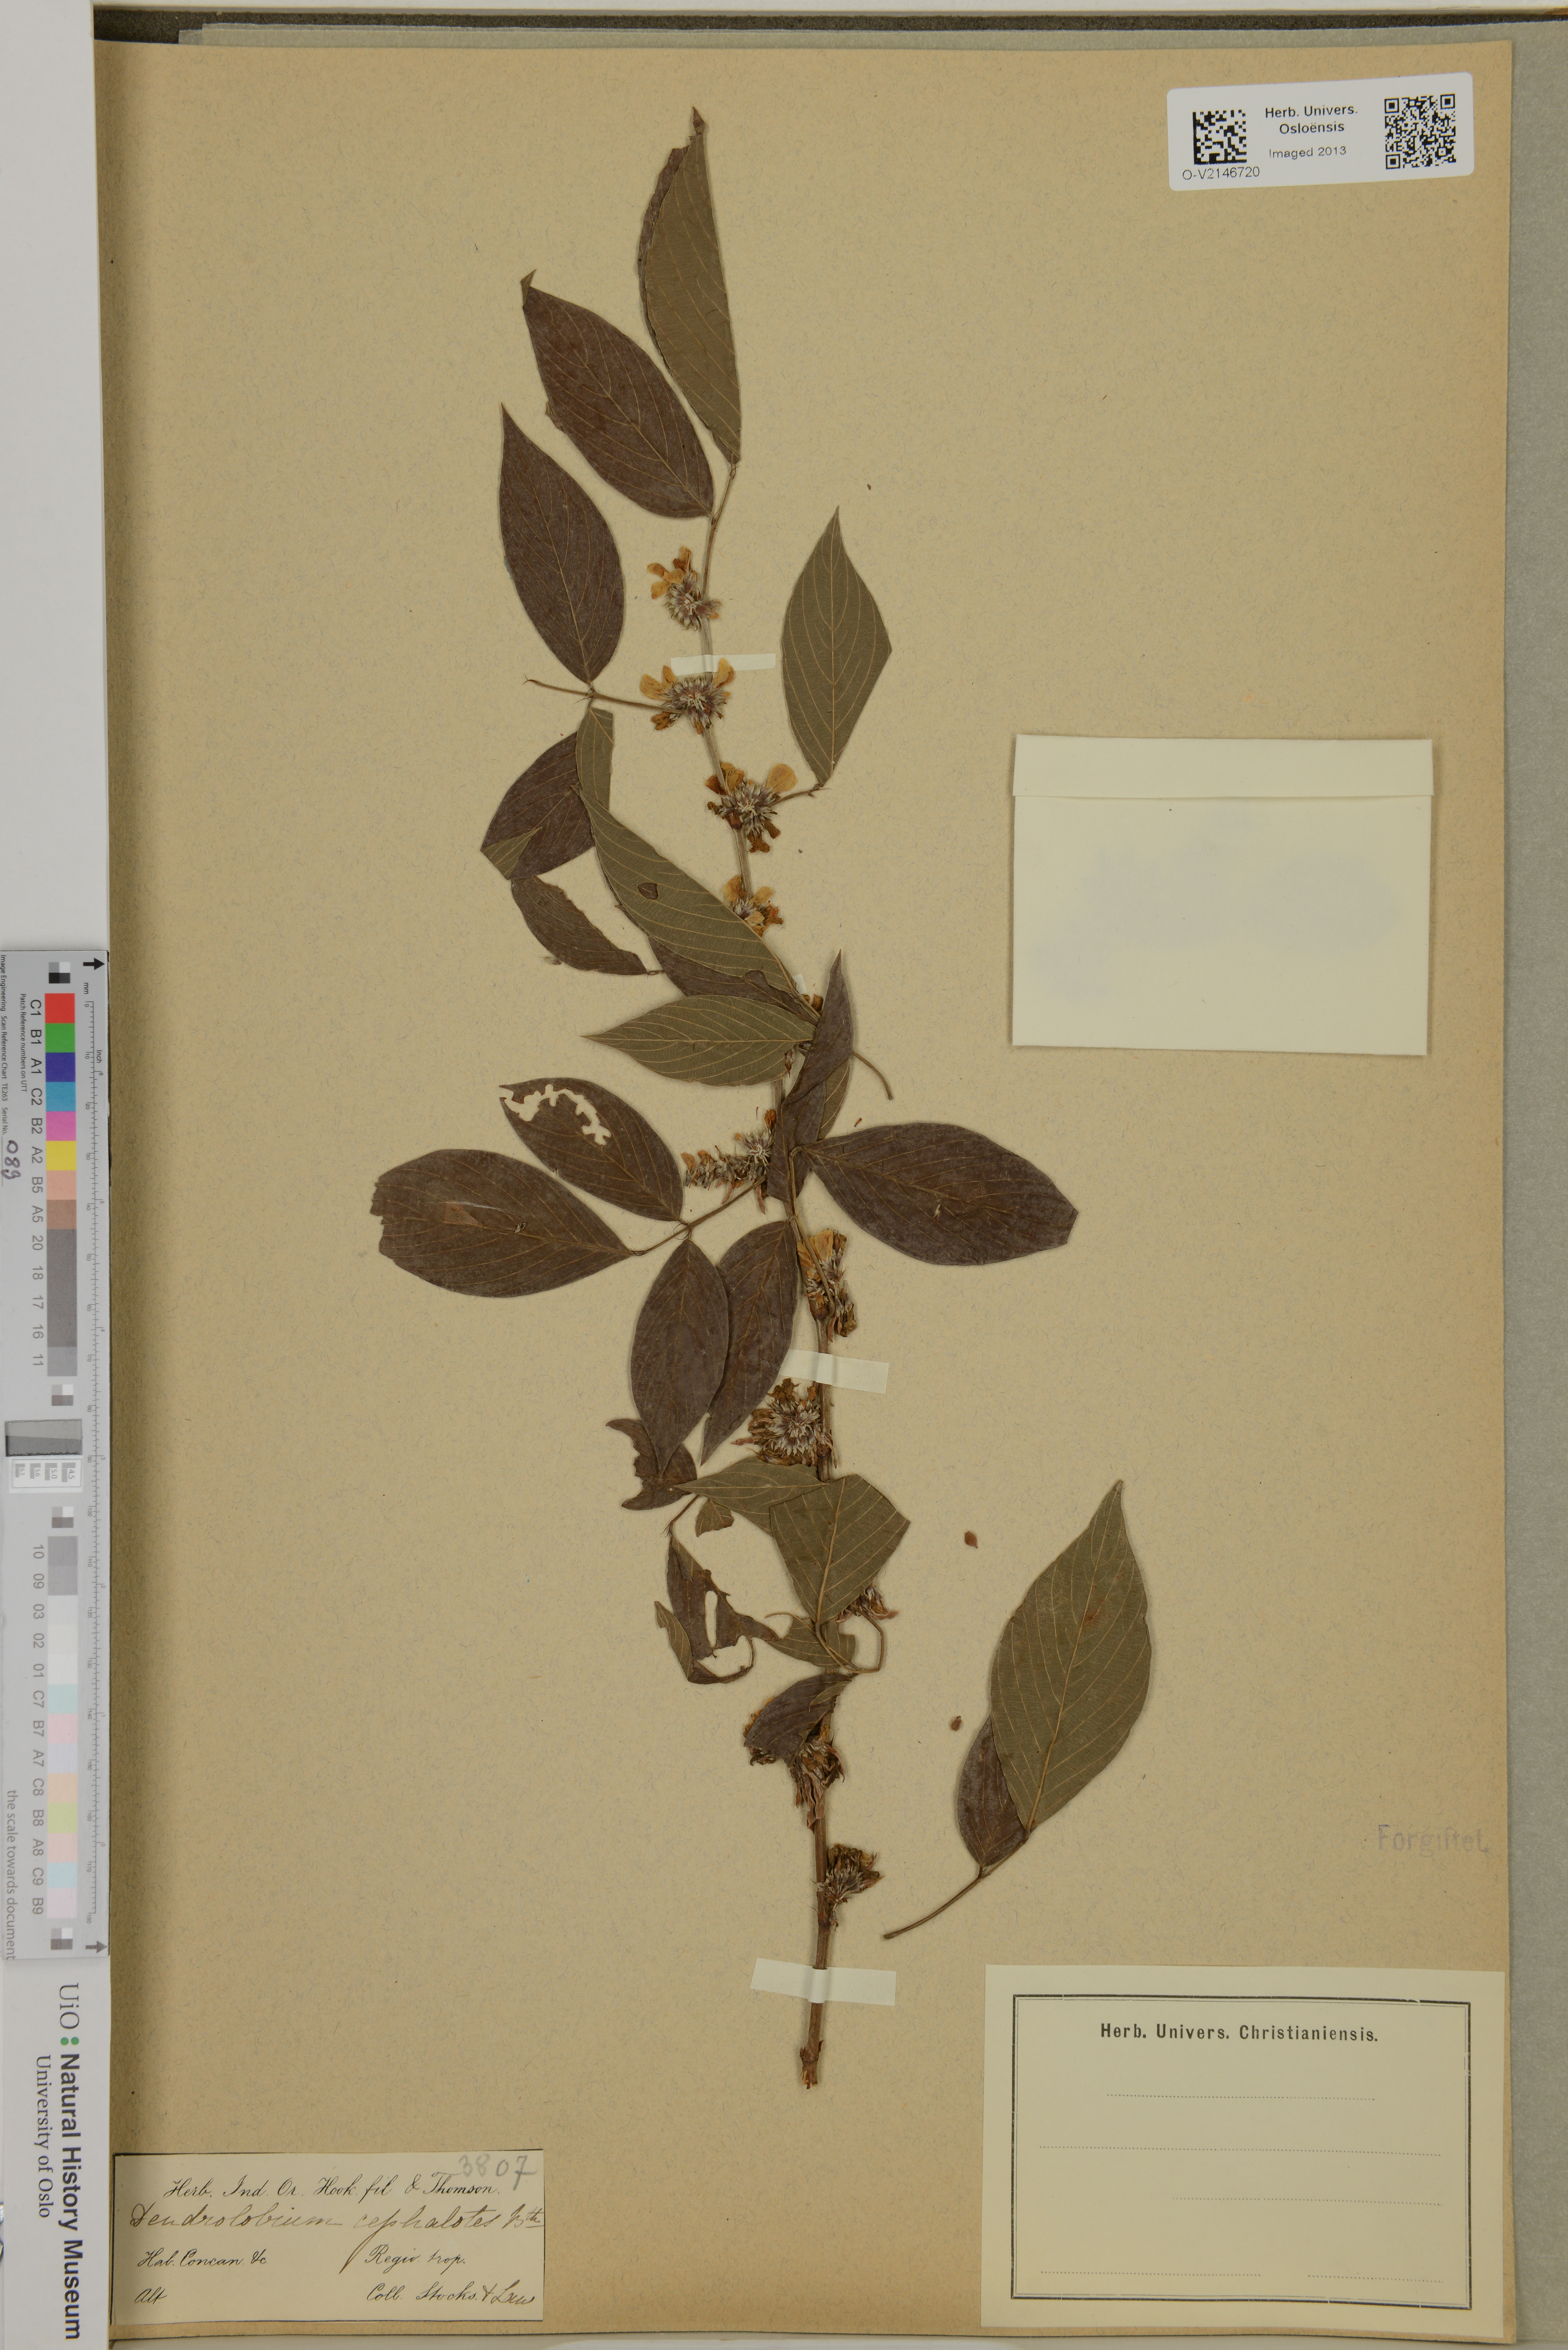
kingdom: Plantae
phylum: Tracheophyta
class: Magnoliopsida
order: Fabales
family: Fabaceae
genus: Dendrolobium
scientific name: Dendrolobium triangulare
